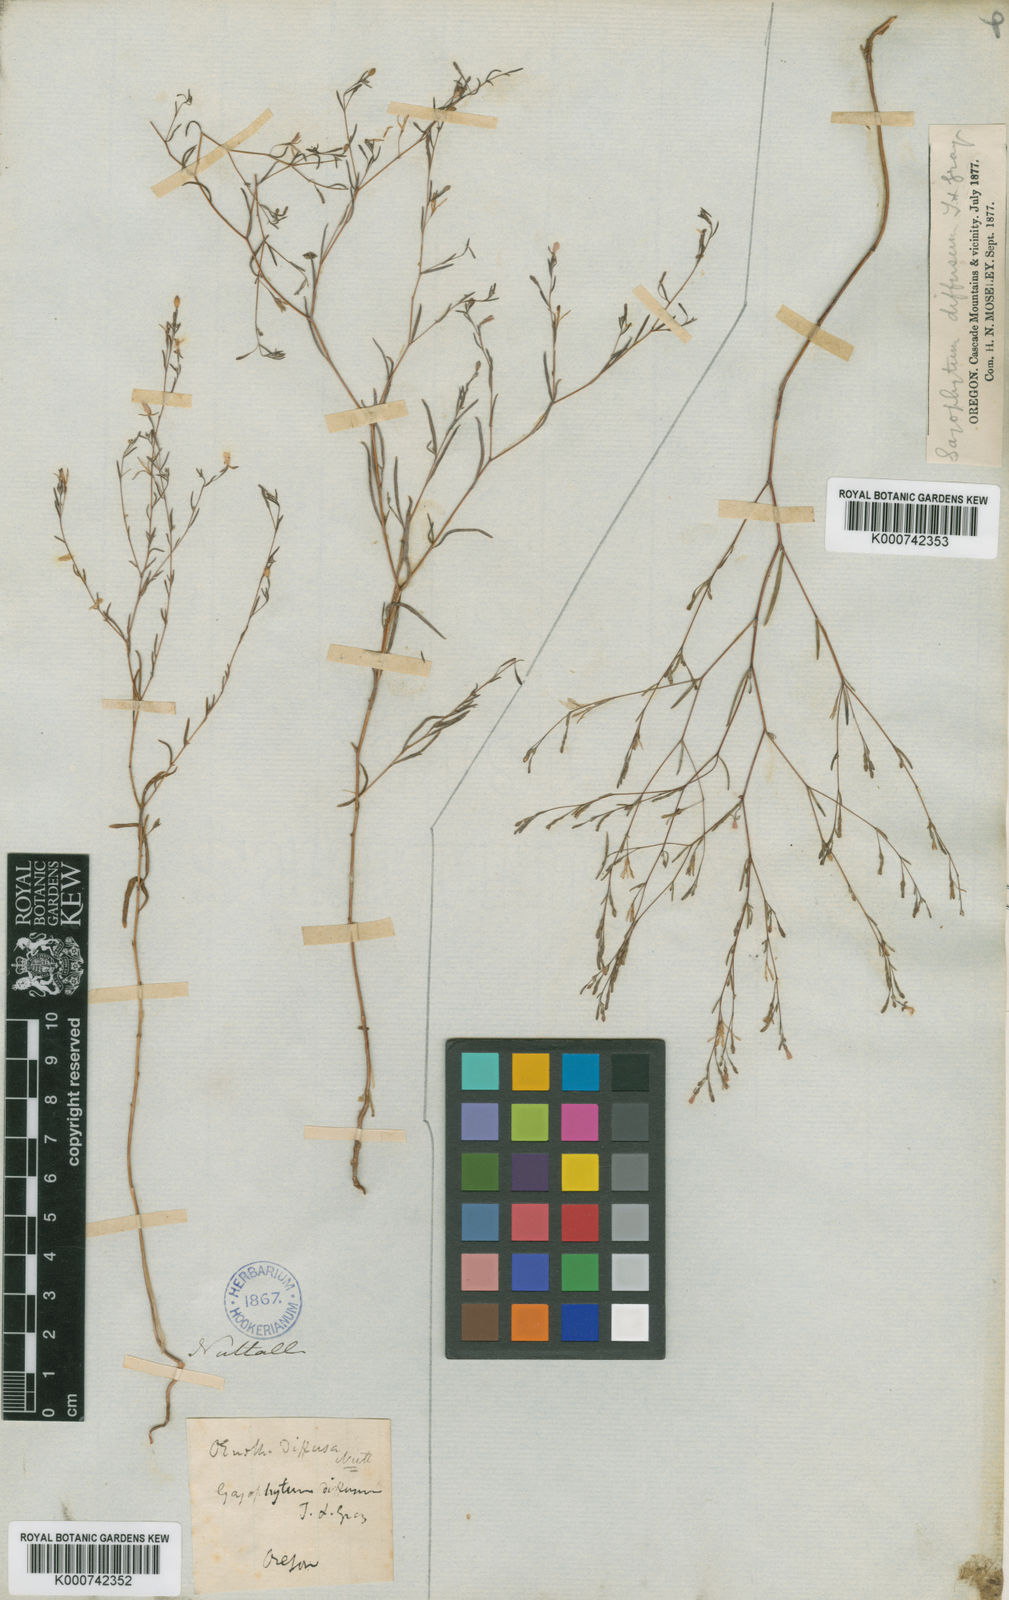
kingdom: Plantae
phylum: Tracheophyta
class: Magnoliopsida
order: Myrtales
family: Onagraceae
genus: Gayophytum
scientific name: Gayophytum diffusum
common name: Big-flowered groundsmoke
